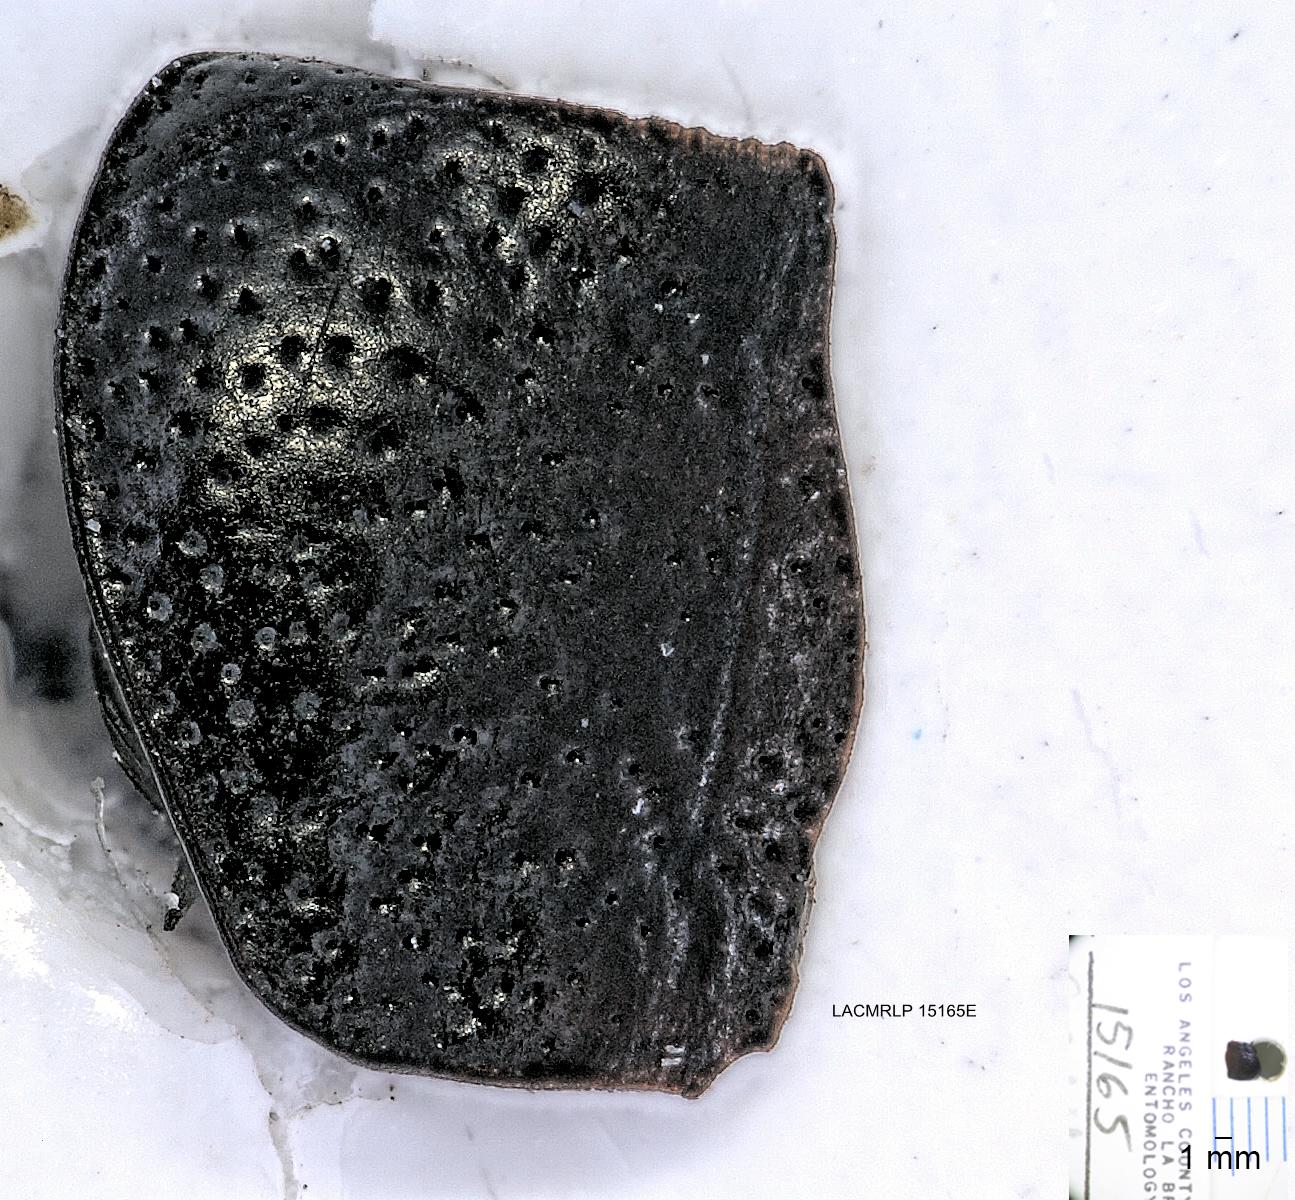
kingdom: Animalia
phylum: Arthropoda
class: Insecta
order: Coleoptera
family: Carabidae
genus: Dicheirus
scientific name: Dicheirus dilatatus
